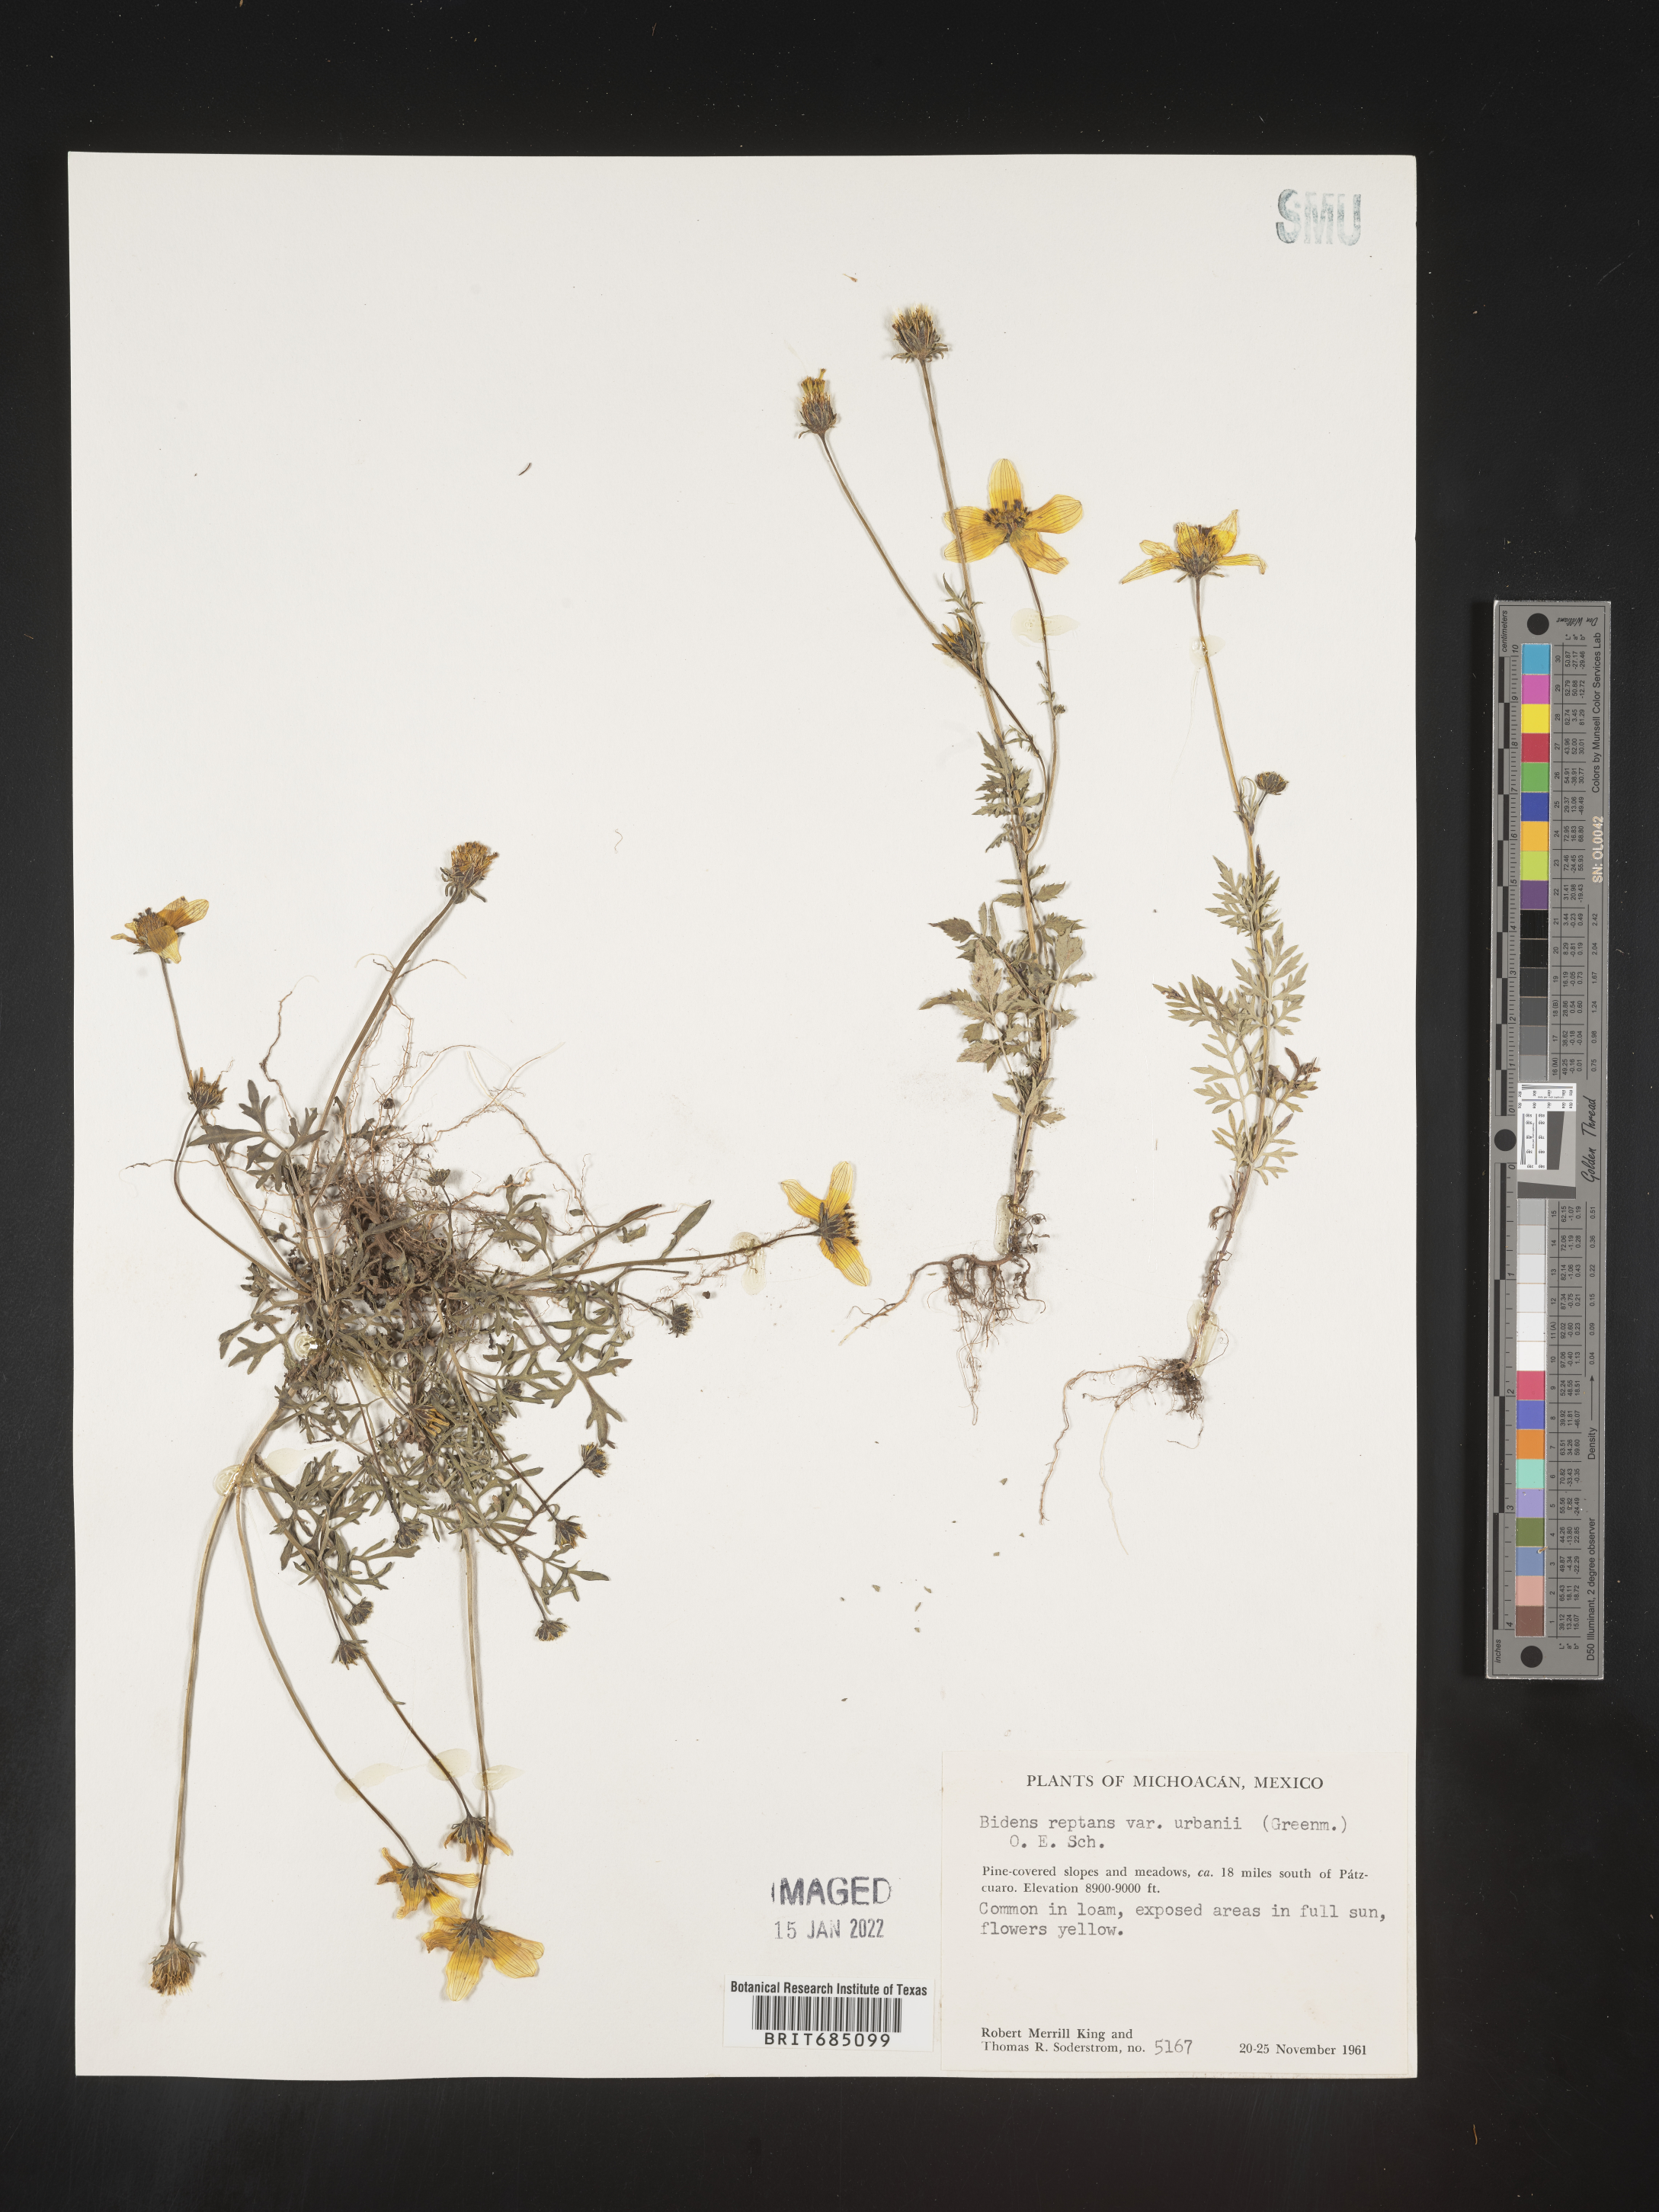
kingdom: Plantae
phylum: Tracheophyta
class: Magnoliopsida
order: Asterales
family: Asteraceae
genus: Bidens
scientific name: Bidens
